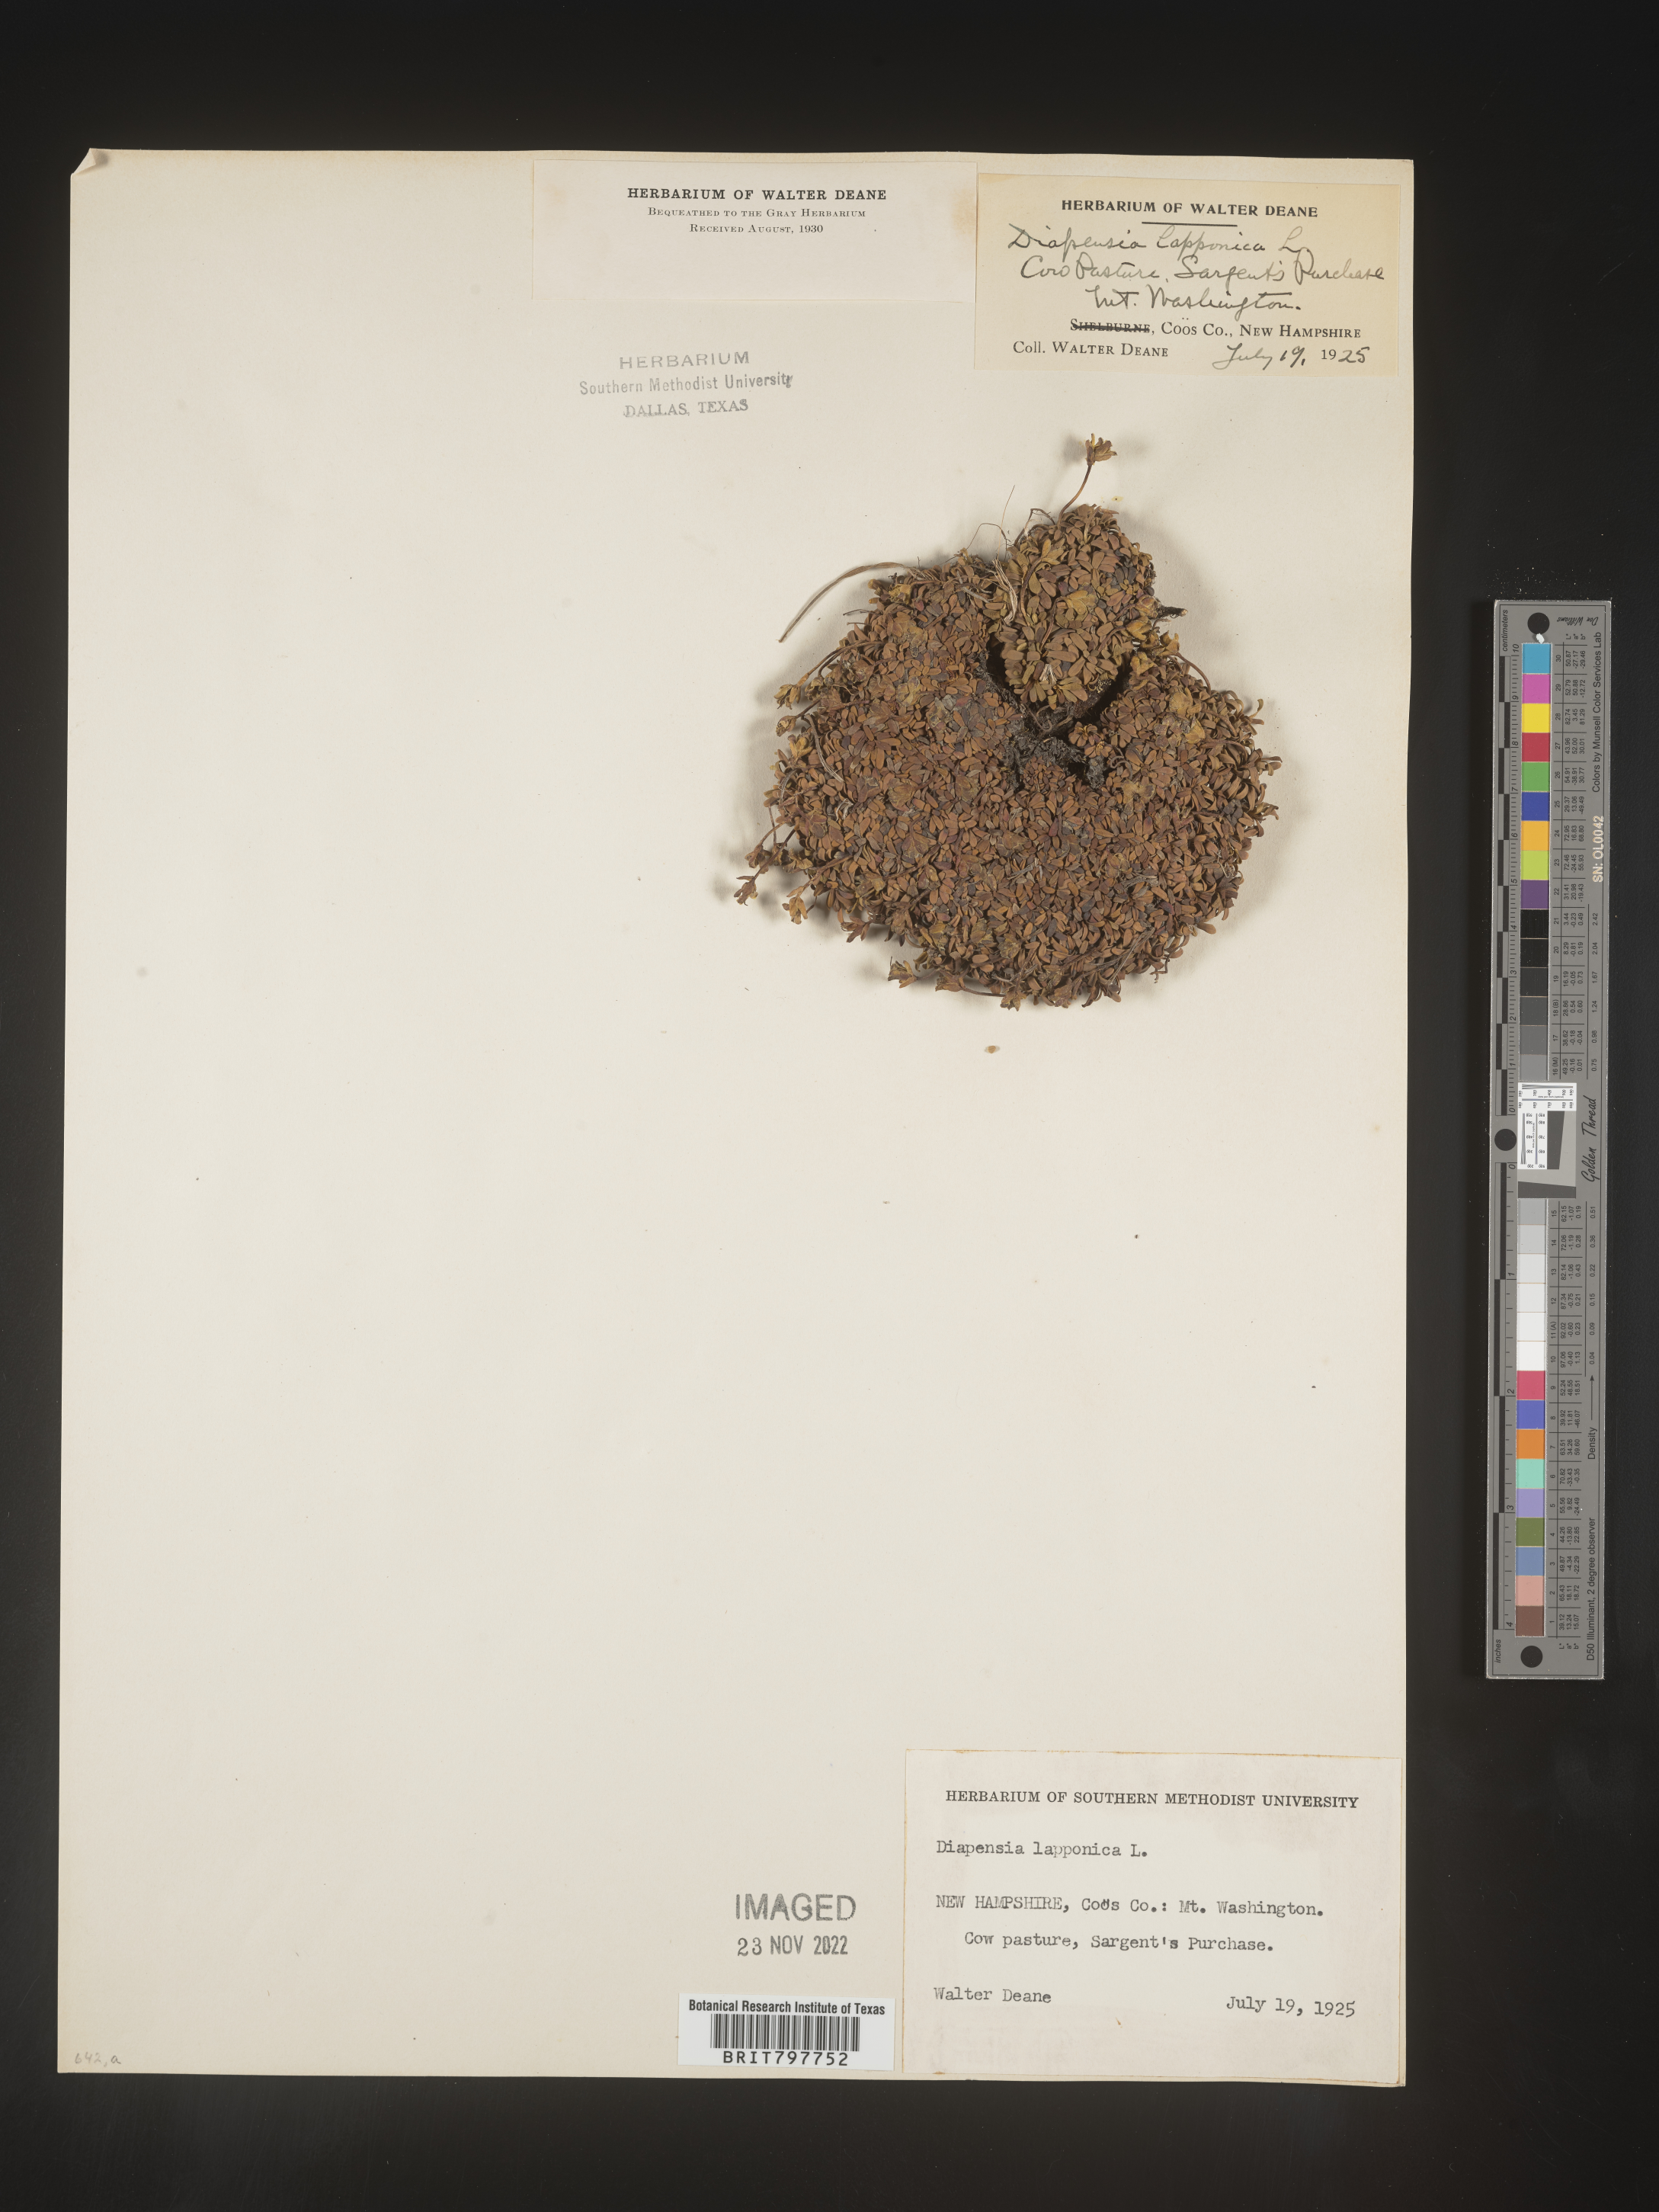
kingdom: Plantae
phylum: Tracheophyta
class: Magnoliopsida
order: Ericales
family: Diapensiaceae
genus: Diapensia
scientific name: Diapensia
